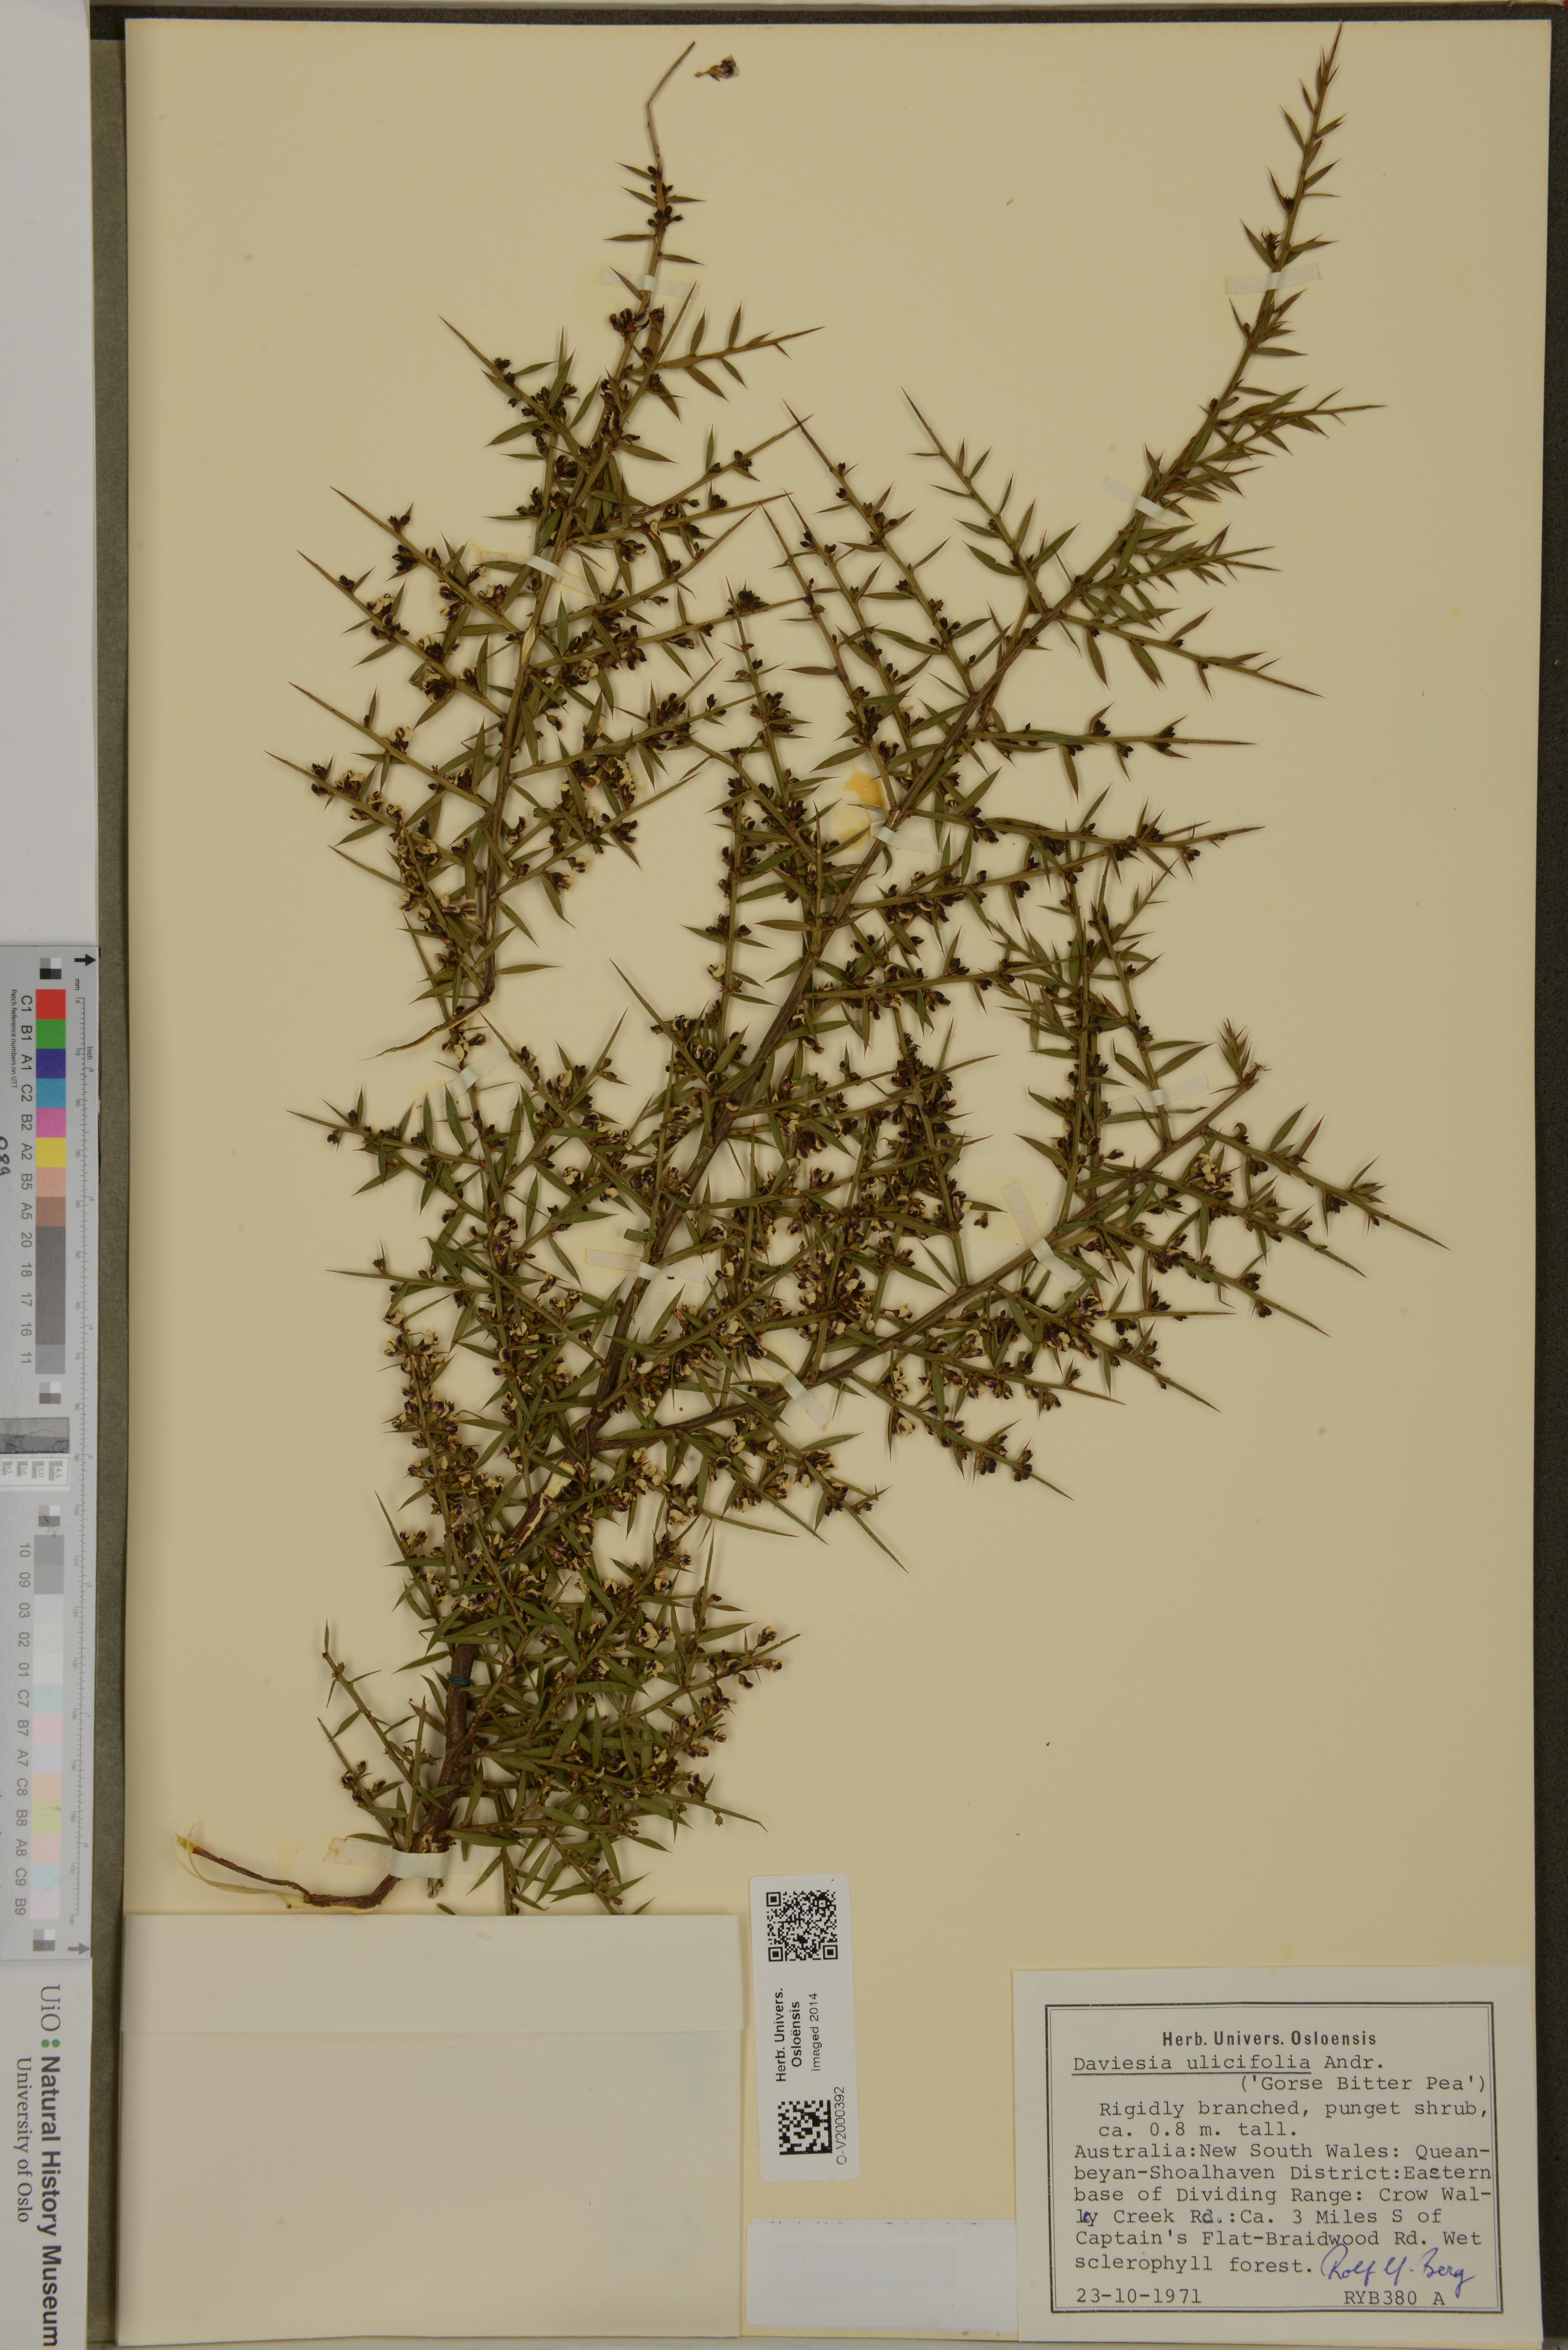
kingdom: Plantae
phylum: Tracheophyta
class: Magnoliopsida
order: Fabales
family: Fabaceae
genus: Daviesia
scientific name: Daviesia ulicifolia
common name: Gorse bitter-pea
